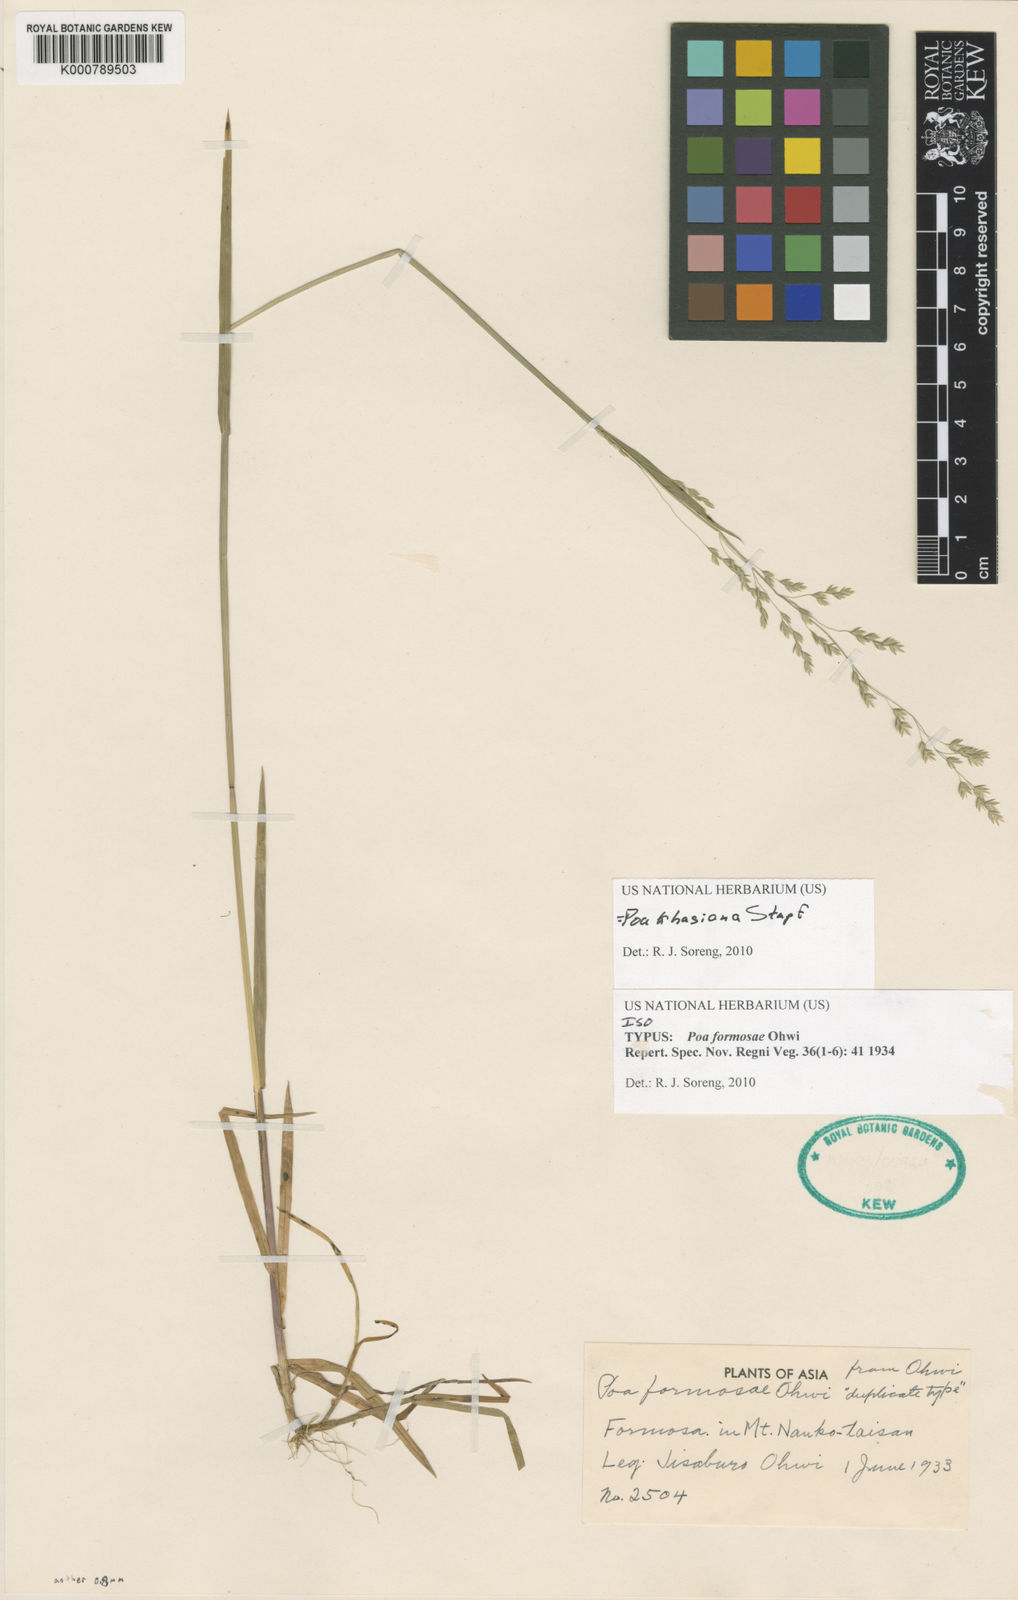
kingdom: Plantae
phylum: Tracheophyta
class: Liliopsida
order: Poales
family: Poaceae
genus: Poa
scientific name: Poa khasiana
